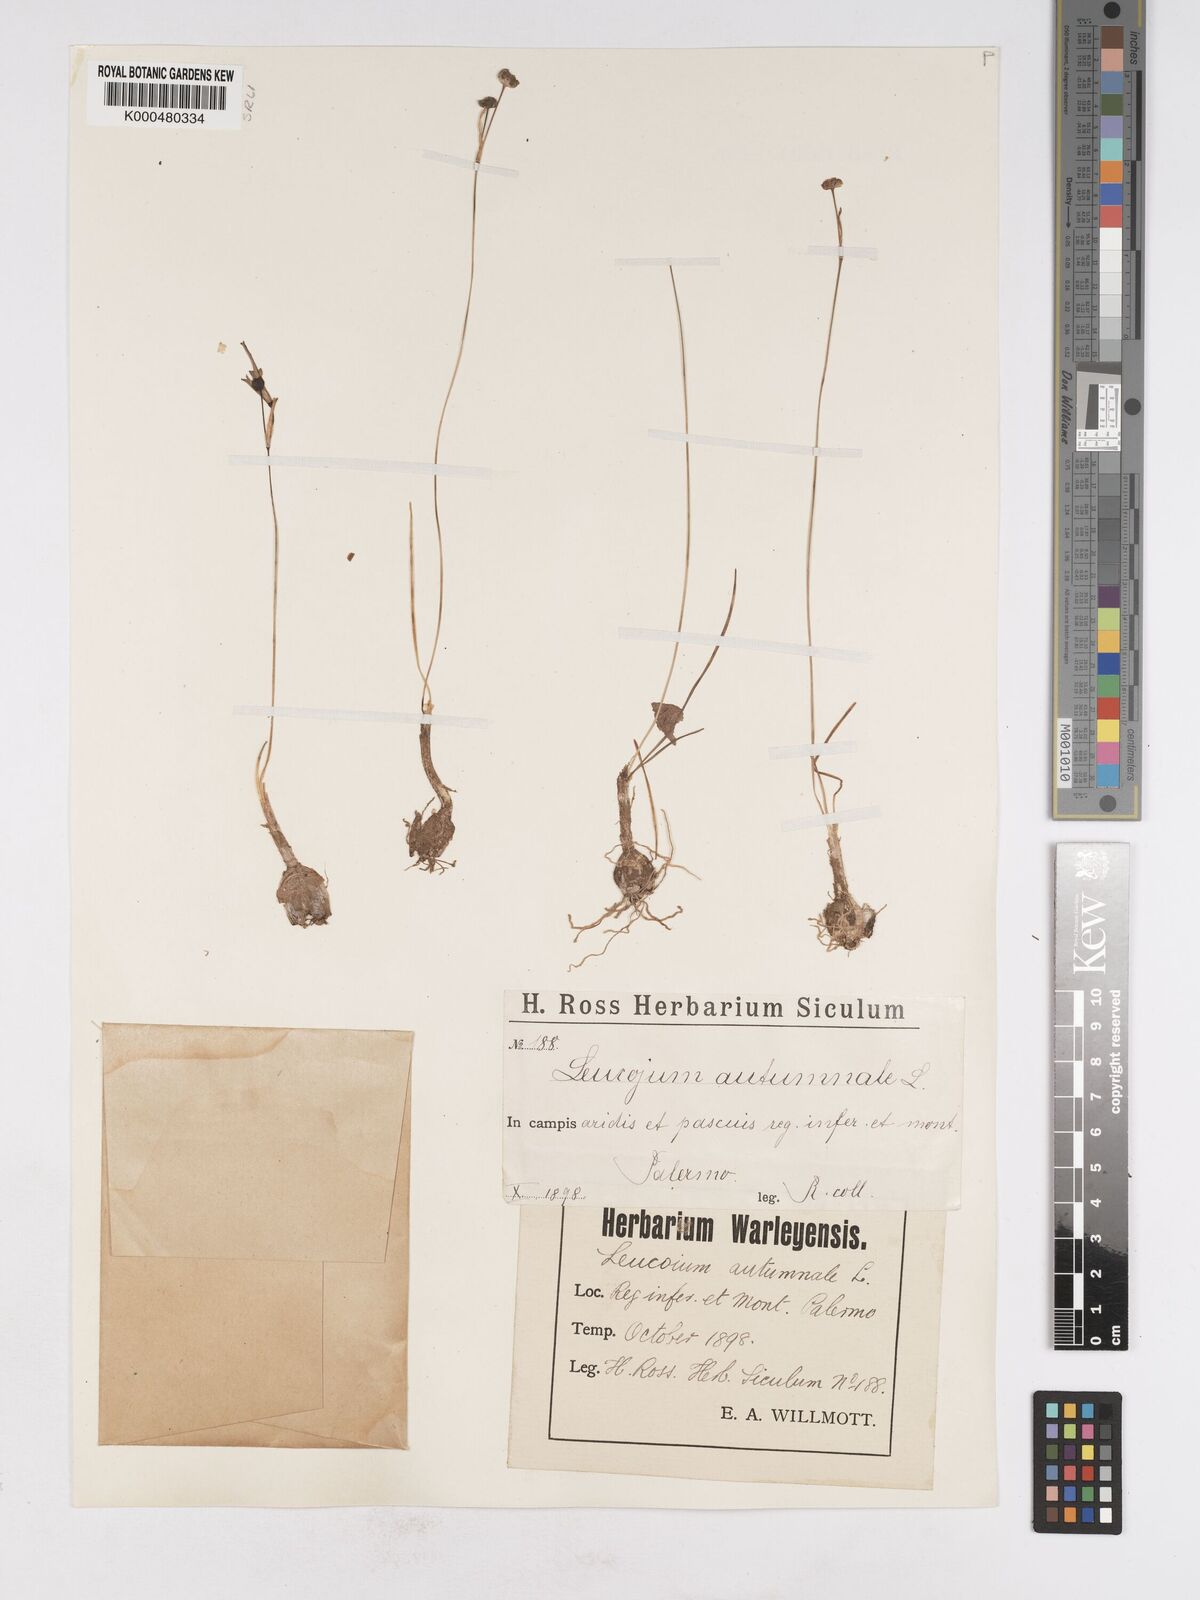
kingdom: Plantae
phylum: Tracheophyta
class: Liliopsida
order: Asparagales
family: Amaryllidaceae
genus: Acis
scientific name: Acis autumnalis
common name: Autumn snowflake
